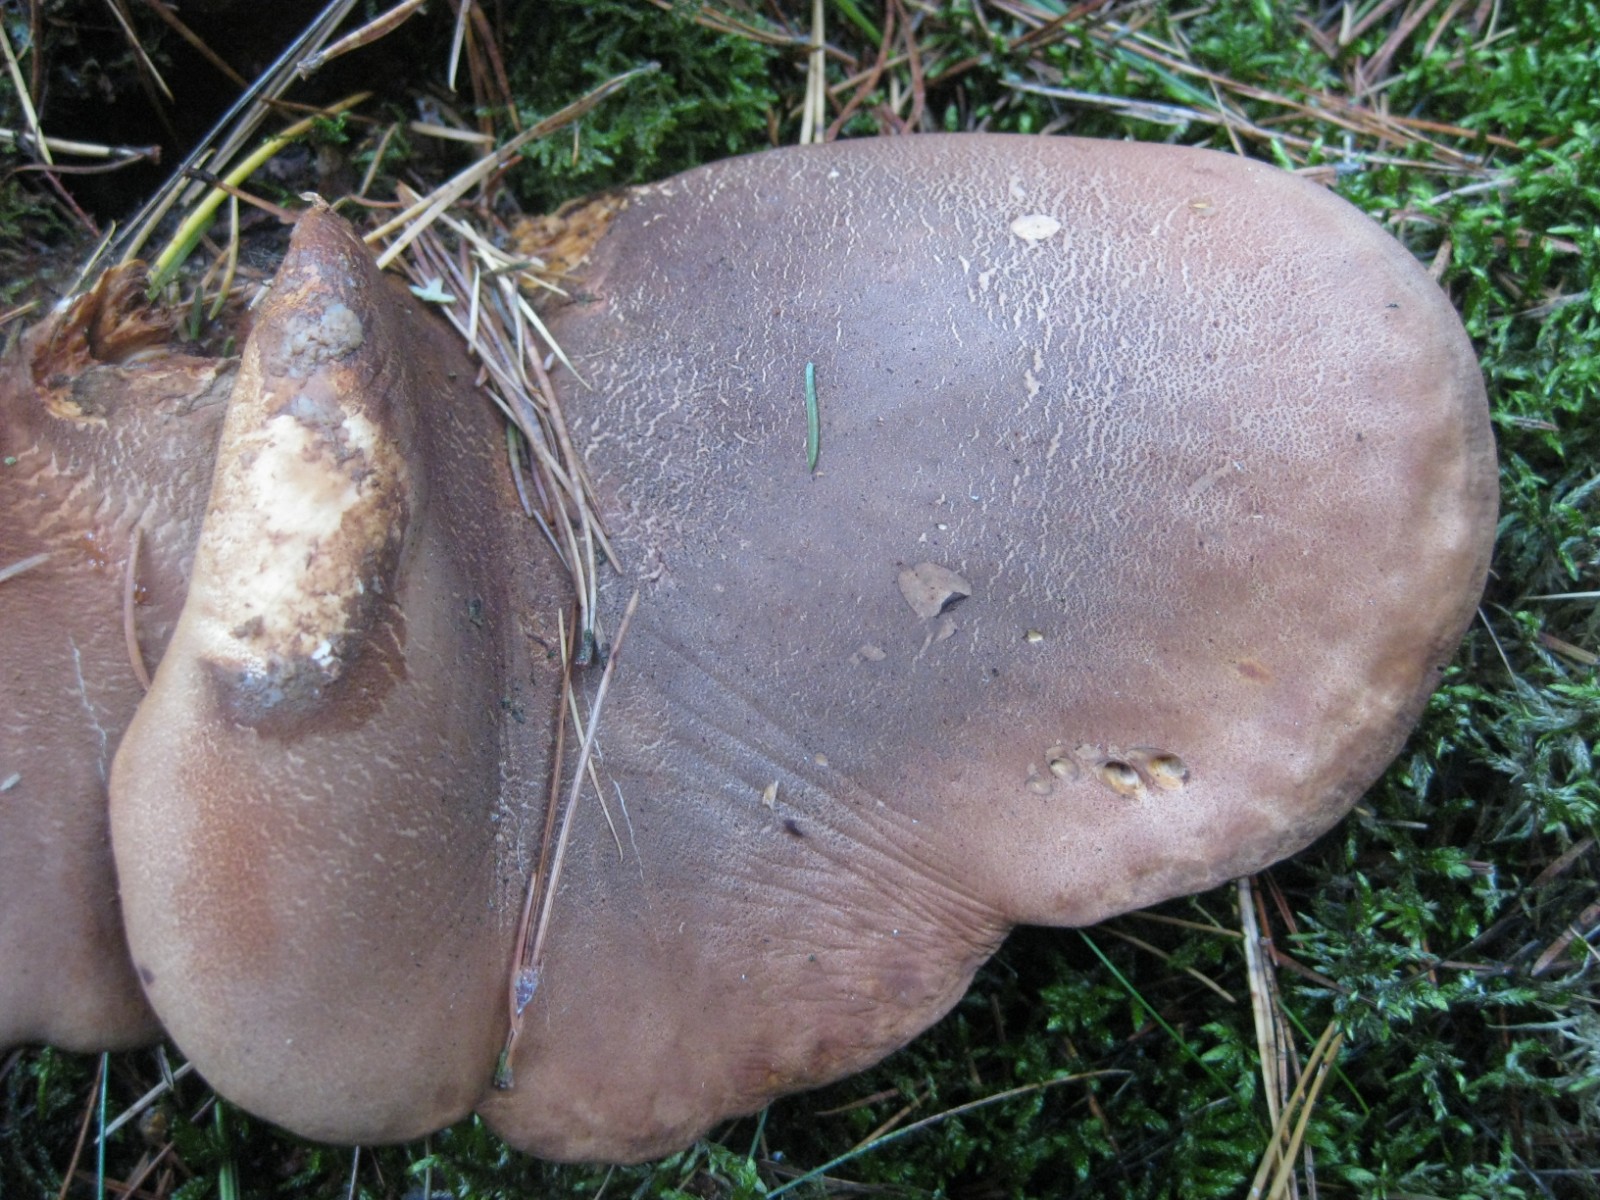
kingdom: Fungi
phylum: Basidiomycota
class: Agaricomycetes
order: Boletales
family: Tapinellaceae
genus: Tapinella
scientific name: Tapinella atrotomentosa
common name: sortfiltet viftesvamp
